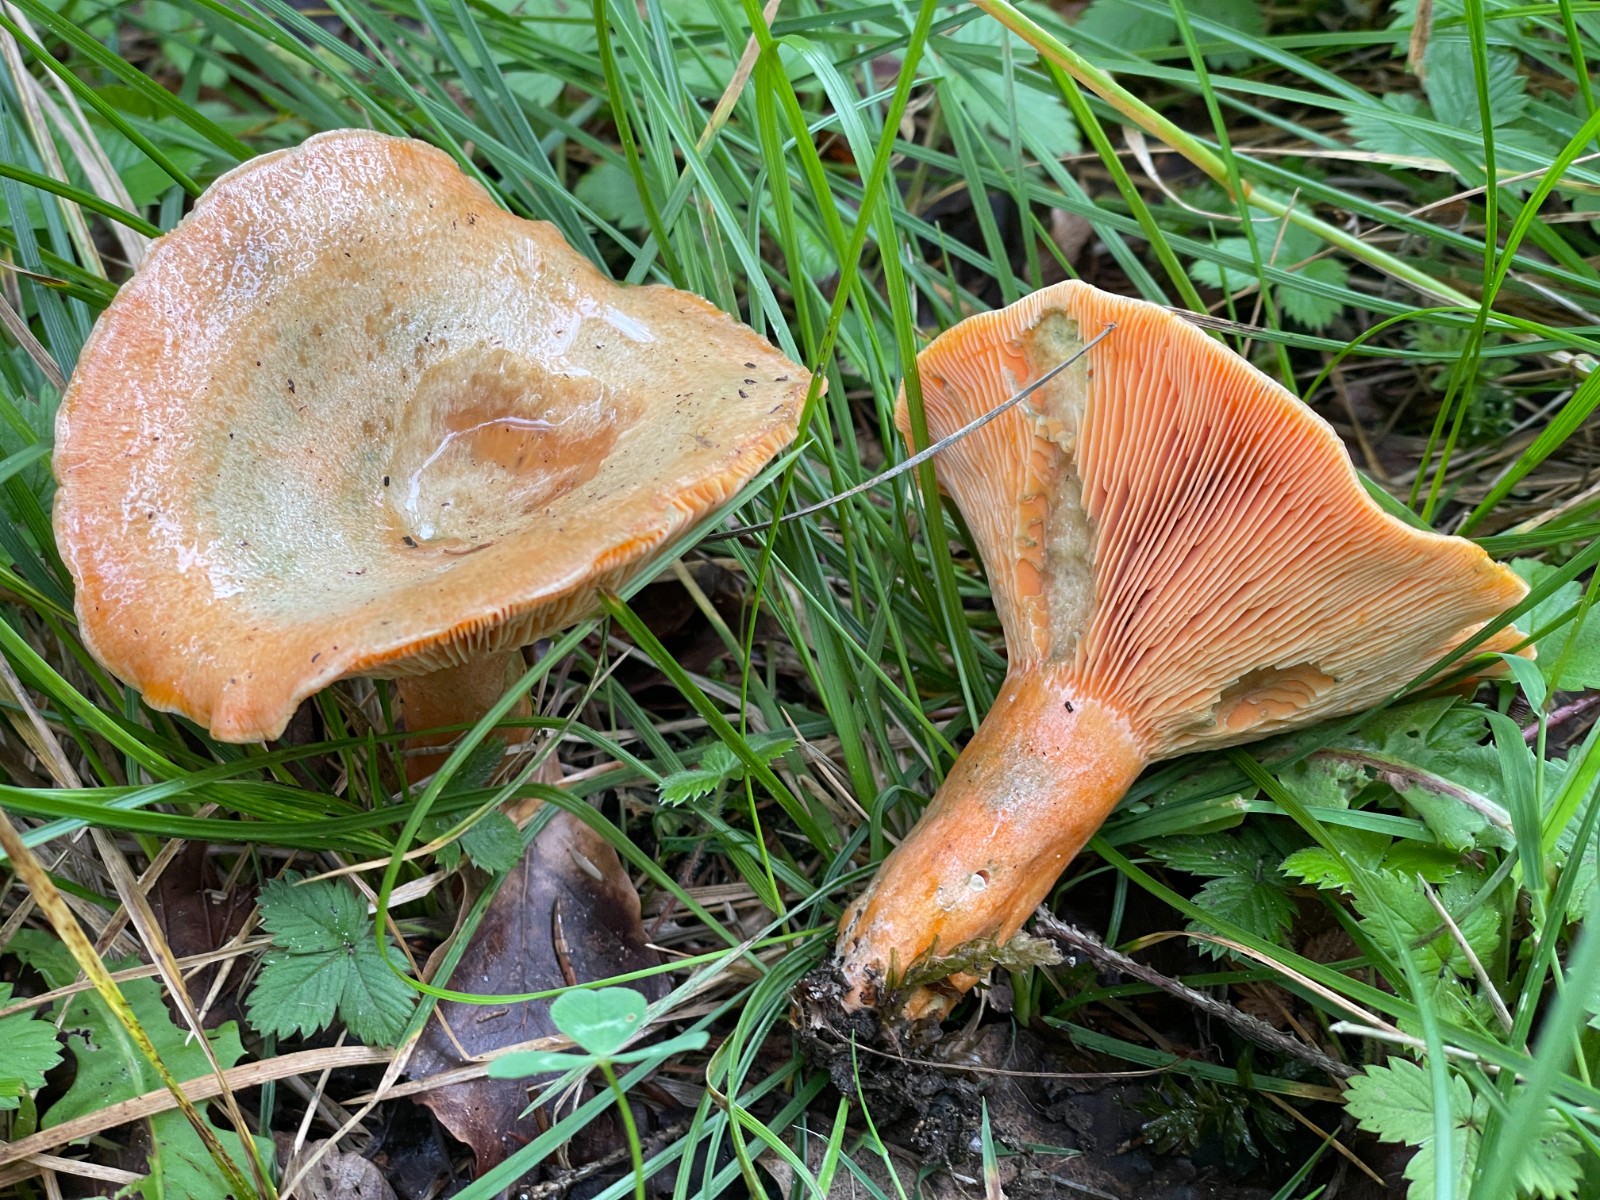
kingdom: Fungi
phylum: Basidiomycota
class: Agaricomycetes
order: Russulales
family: Russulaceae
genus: Lactarius
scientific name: Lactarius deterrimus
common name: gran-mælkehat
